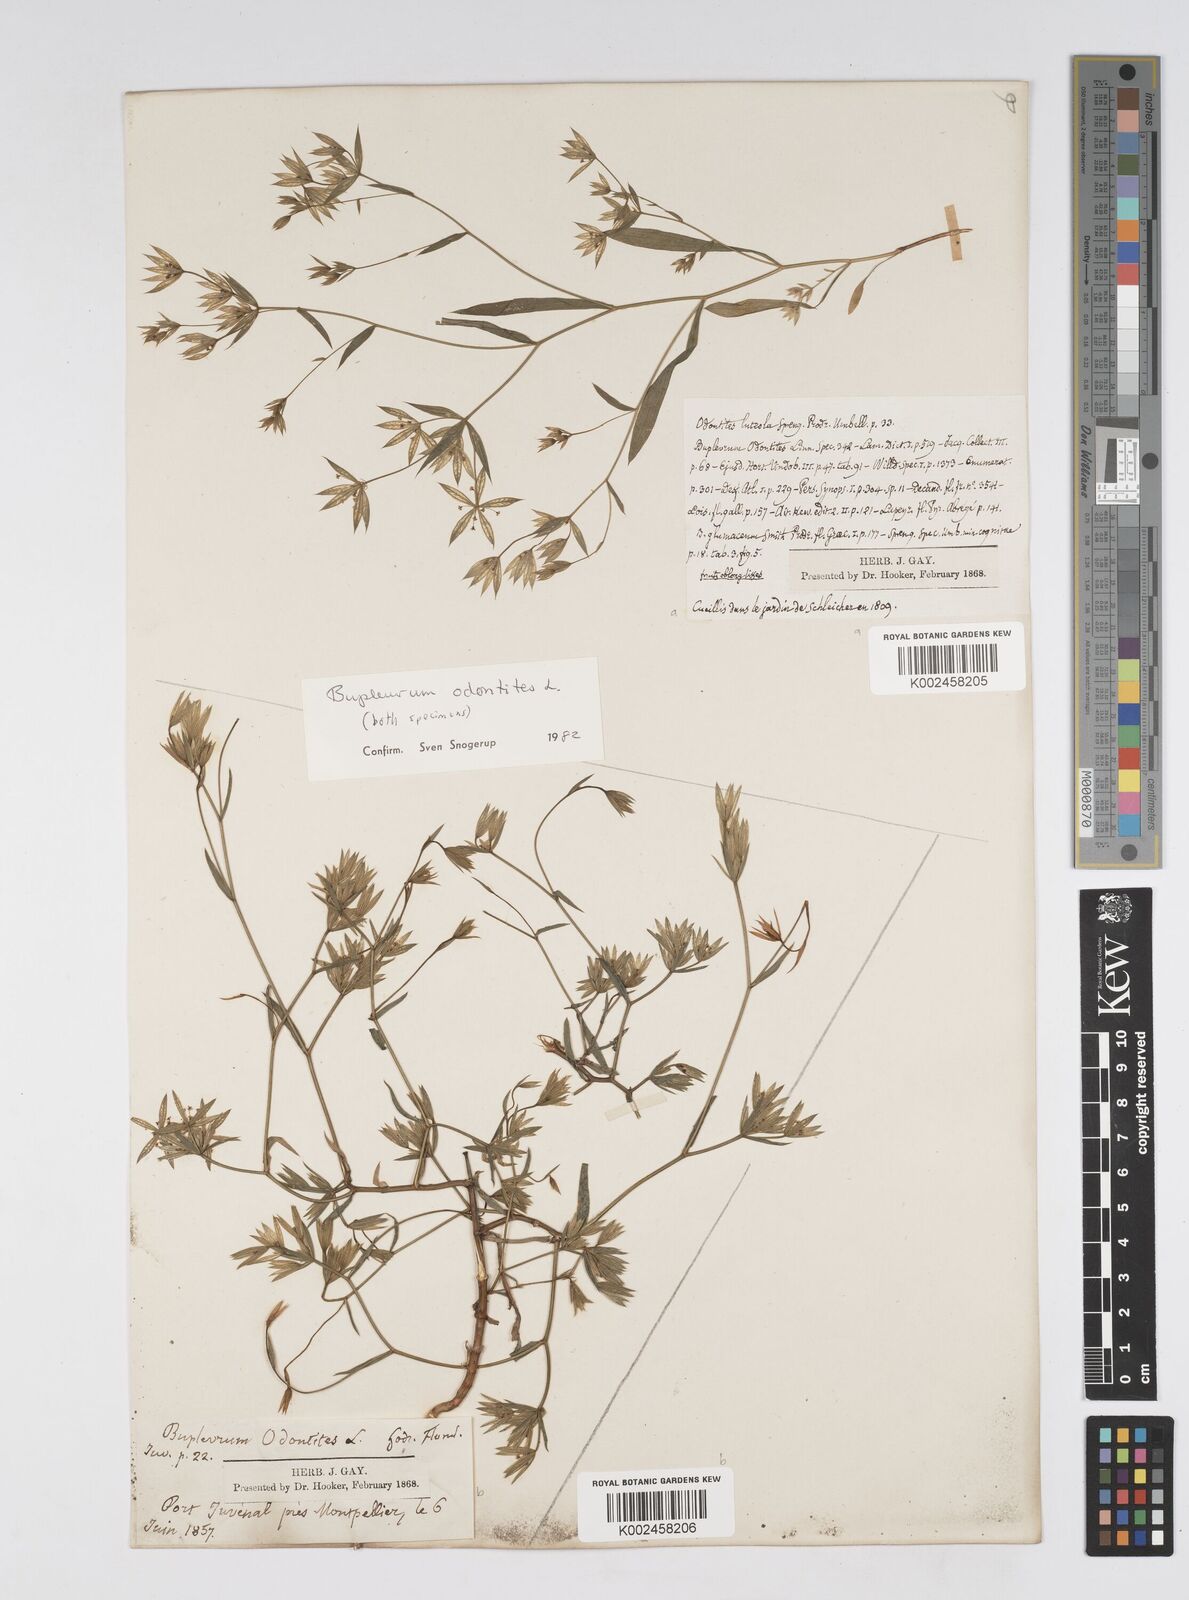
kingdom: Plantae
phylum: Tracheophyta
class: Magnoliopsida
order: Apiales
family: Apiaceae
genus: Bupleurum
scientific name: Bupleurum odontites
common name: Narrowleaf thorow wax
